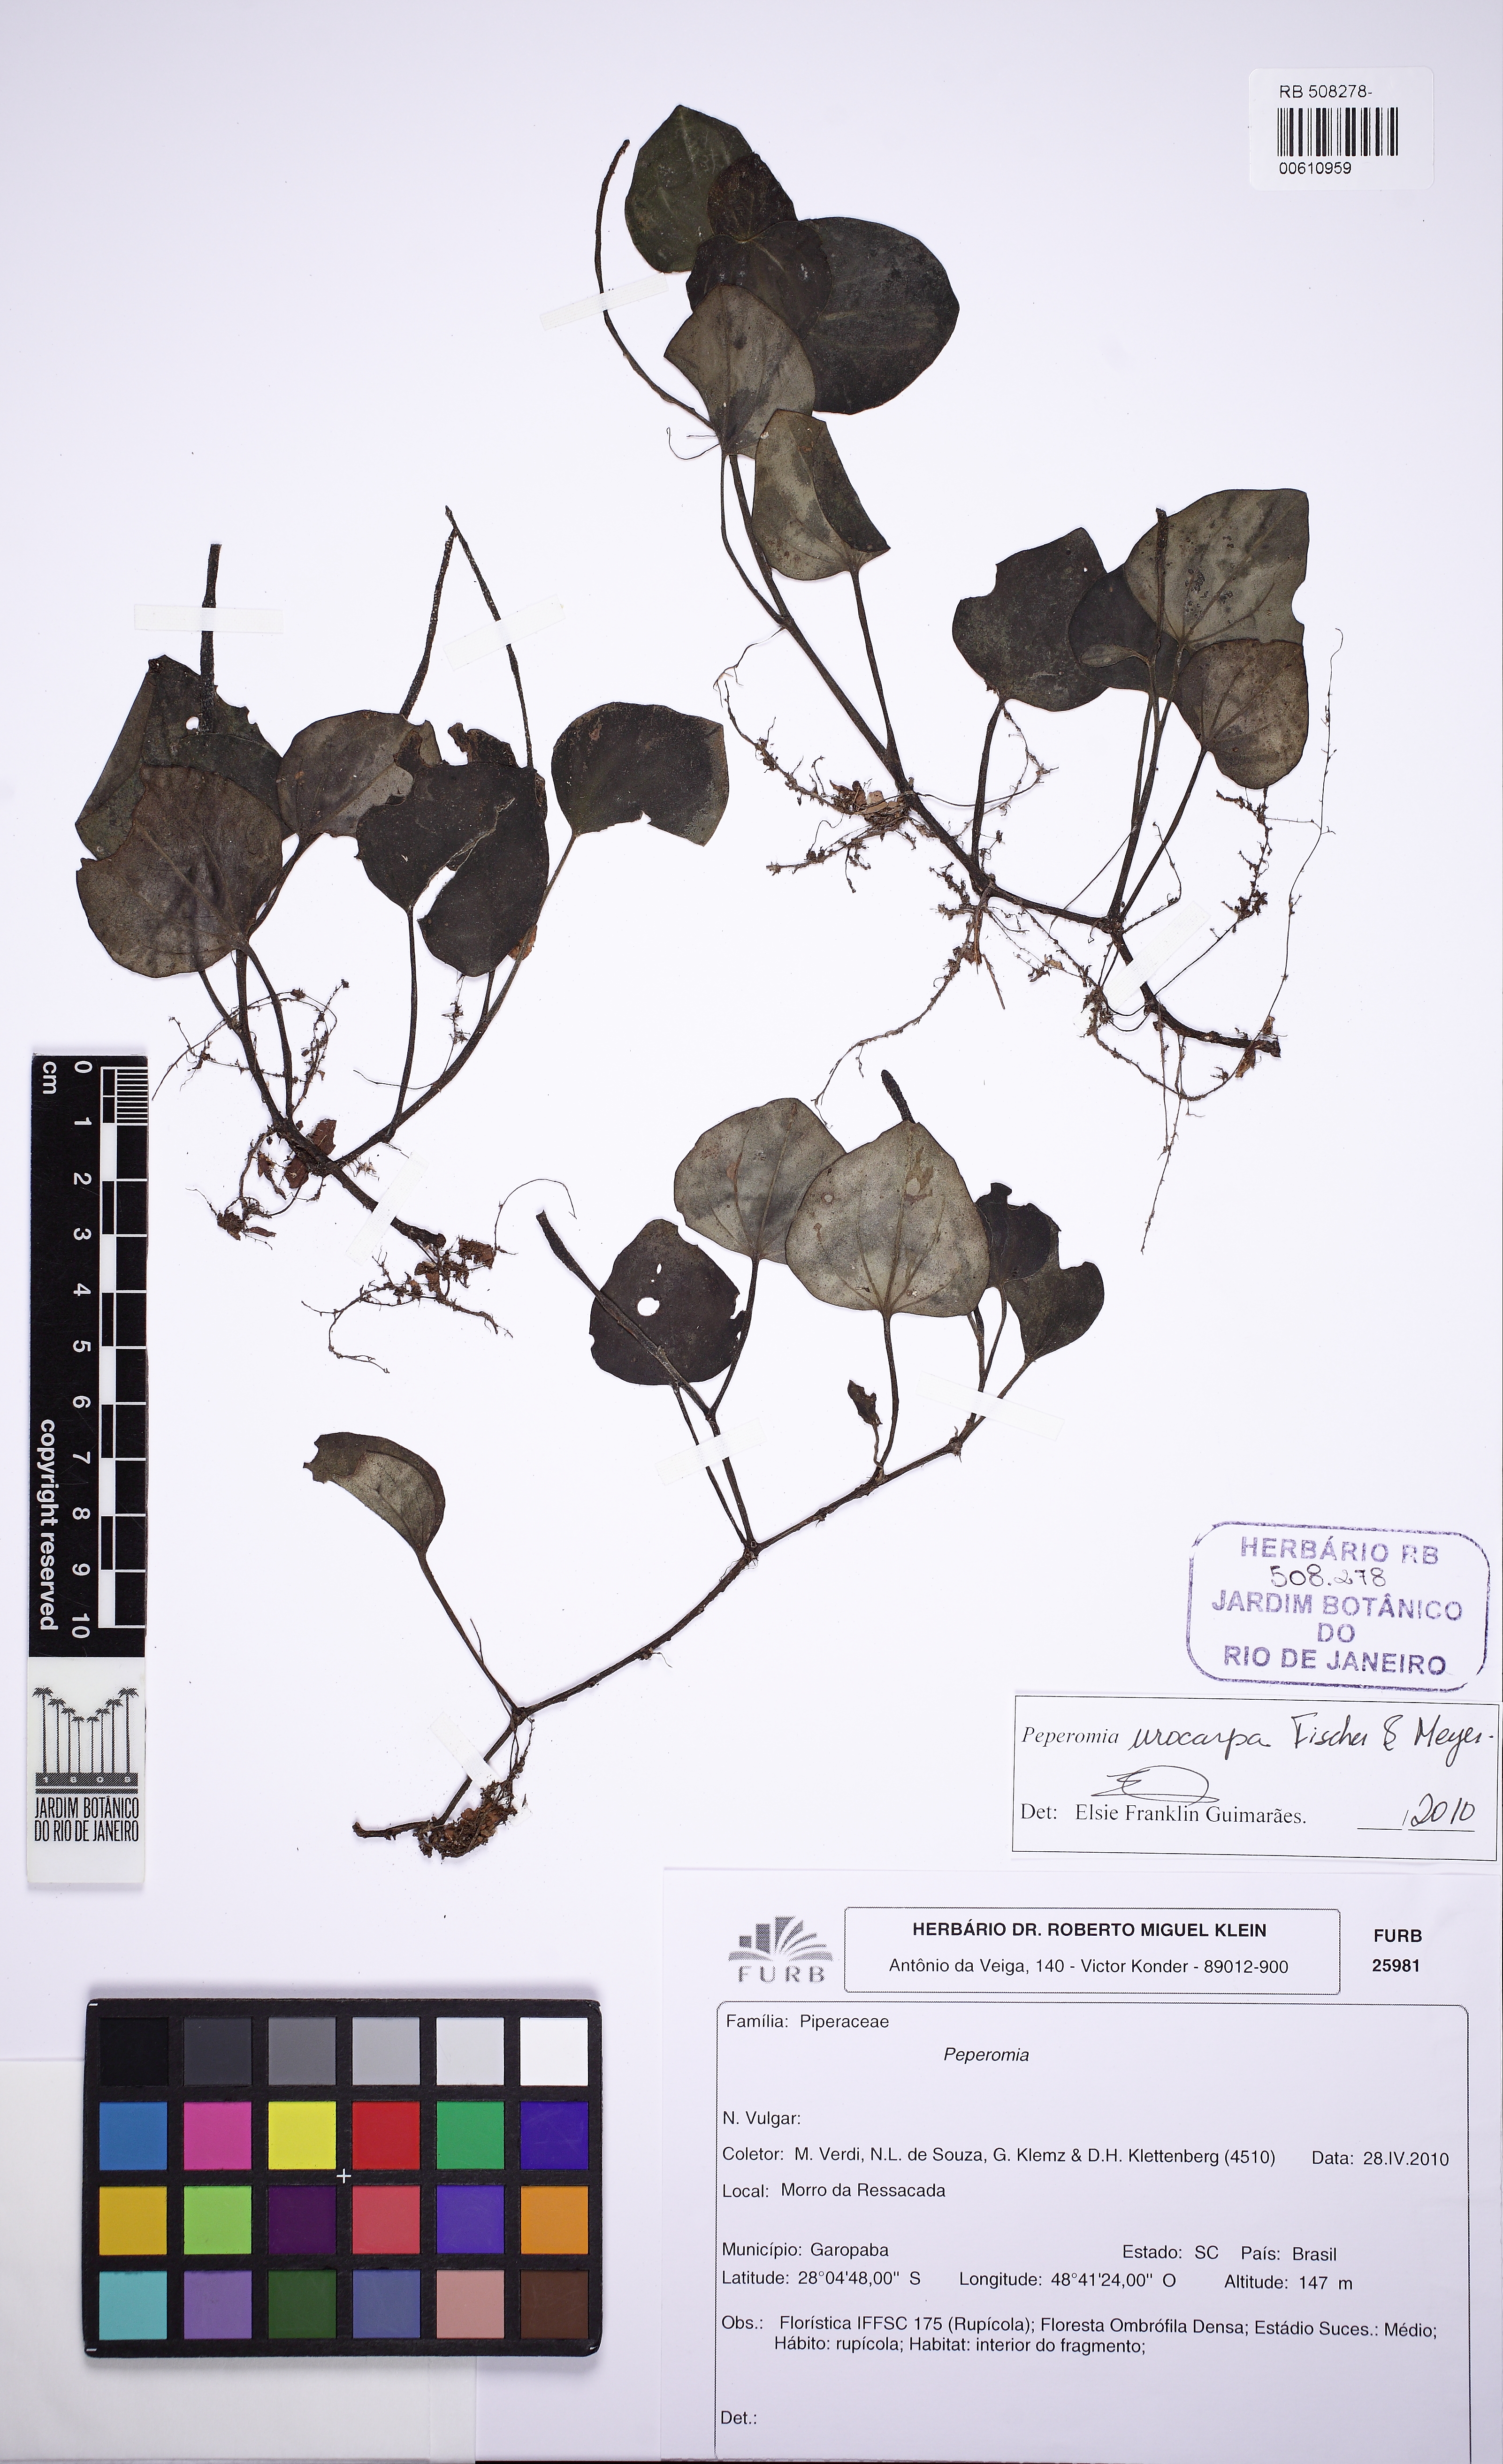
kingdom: Plantae
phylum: Tracheophyta
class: Magnoliopsida
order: Piperales
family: Piperaceae
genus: Peperomia
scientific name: Peperomia urocarpa
